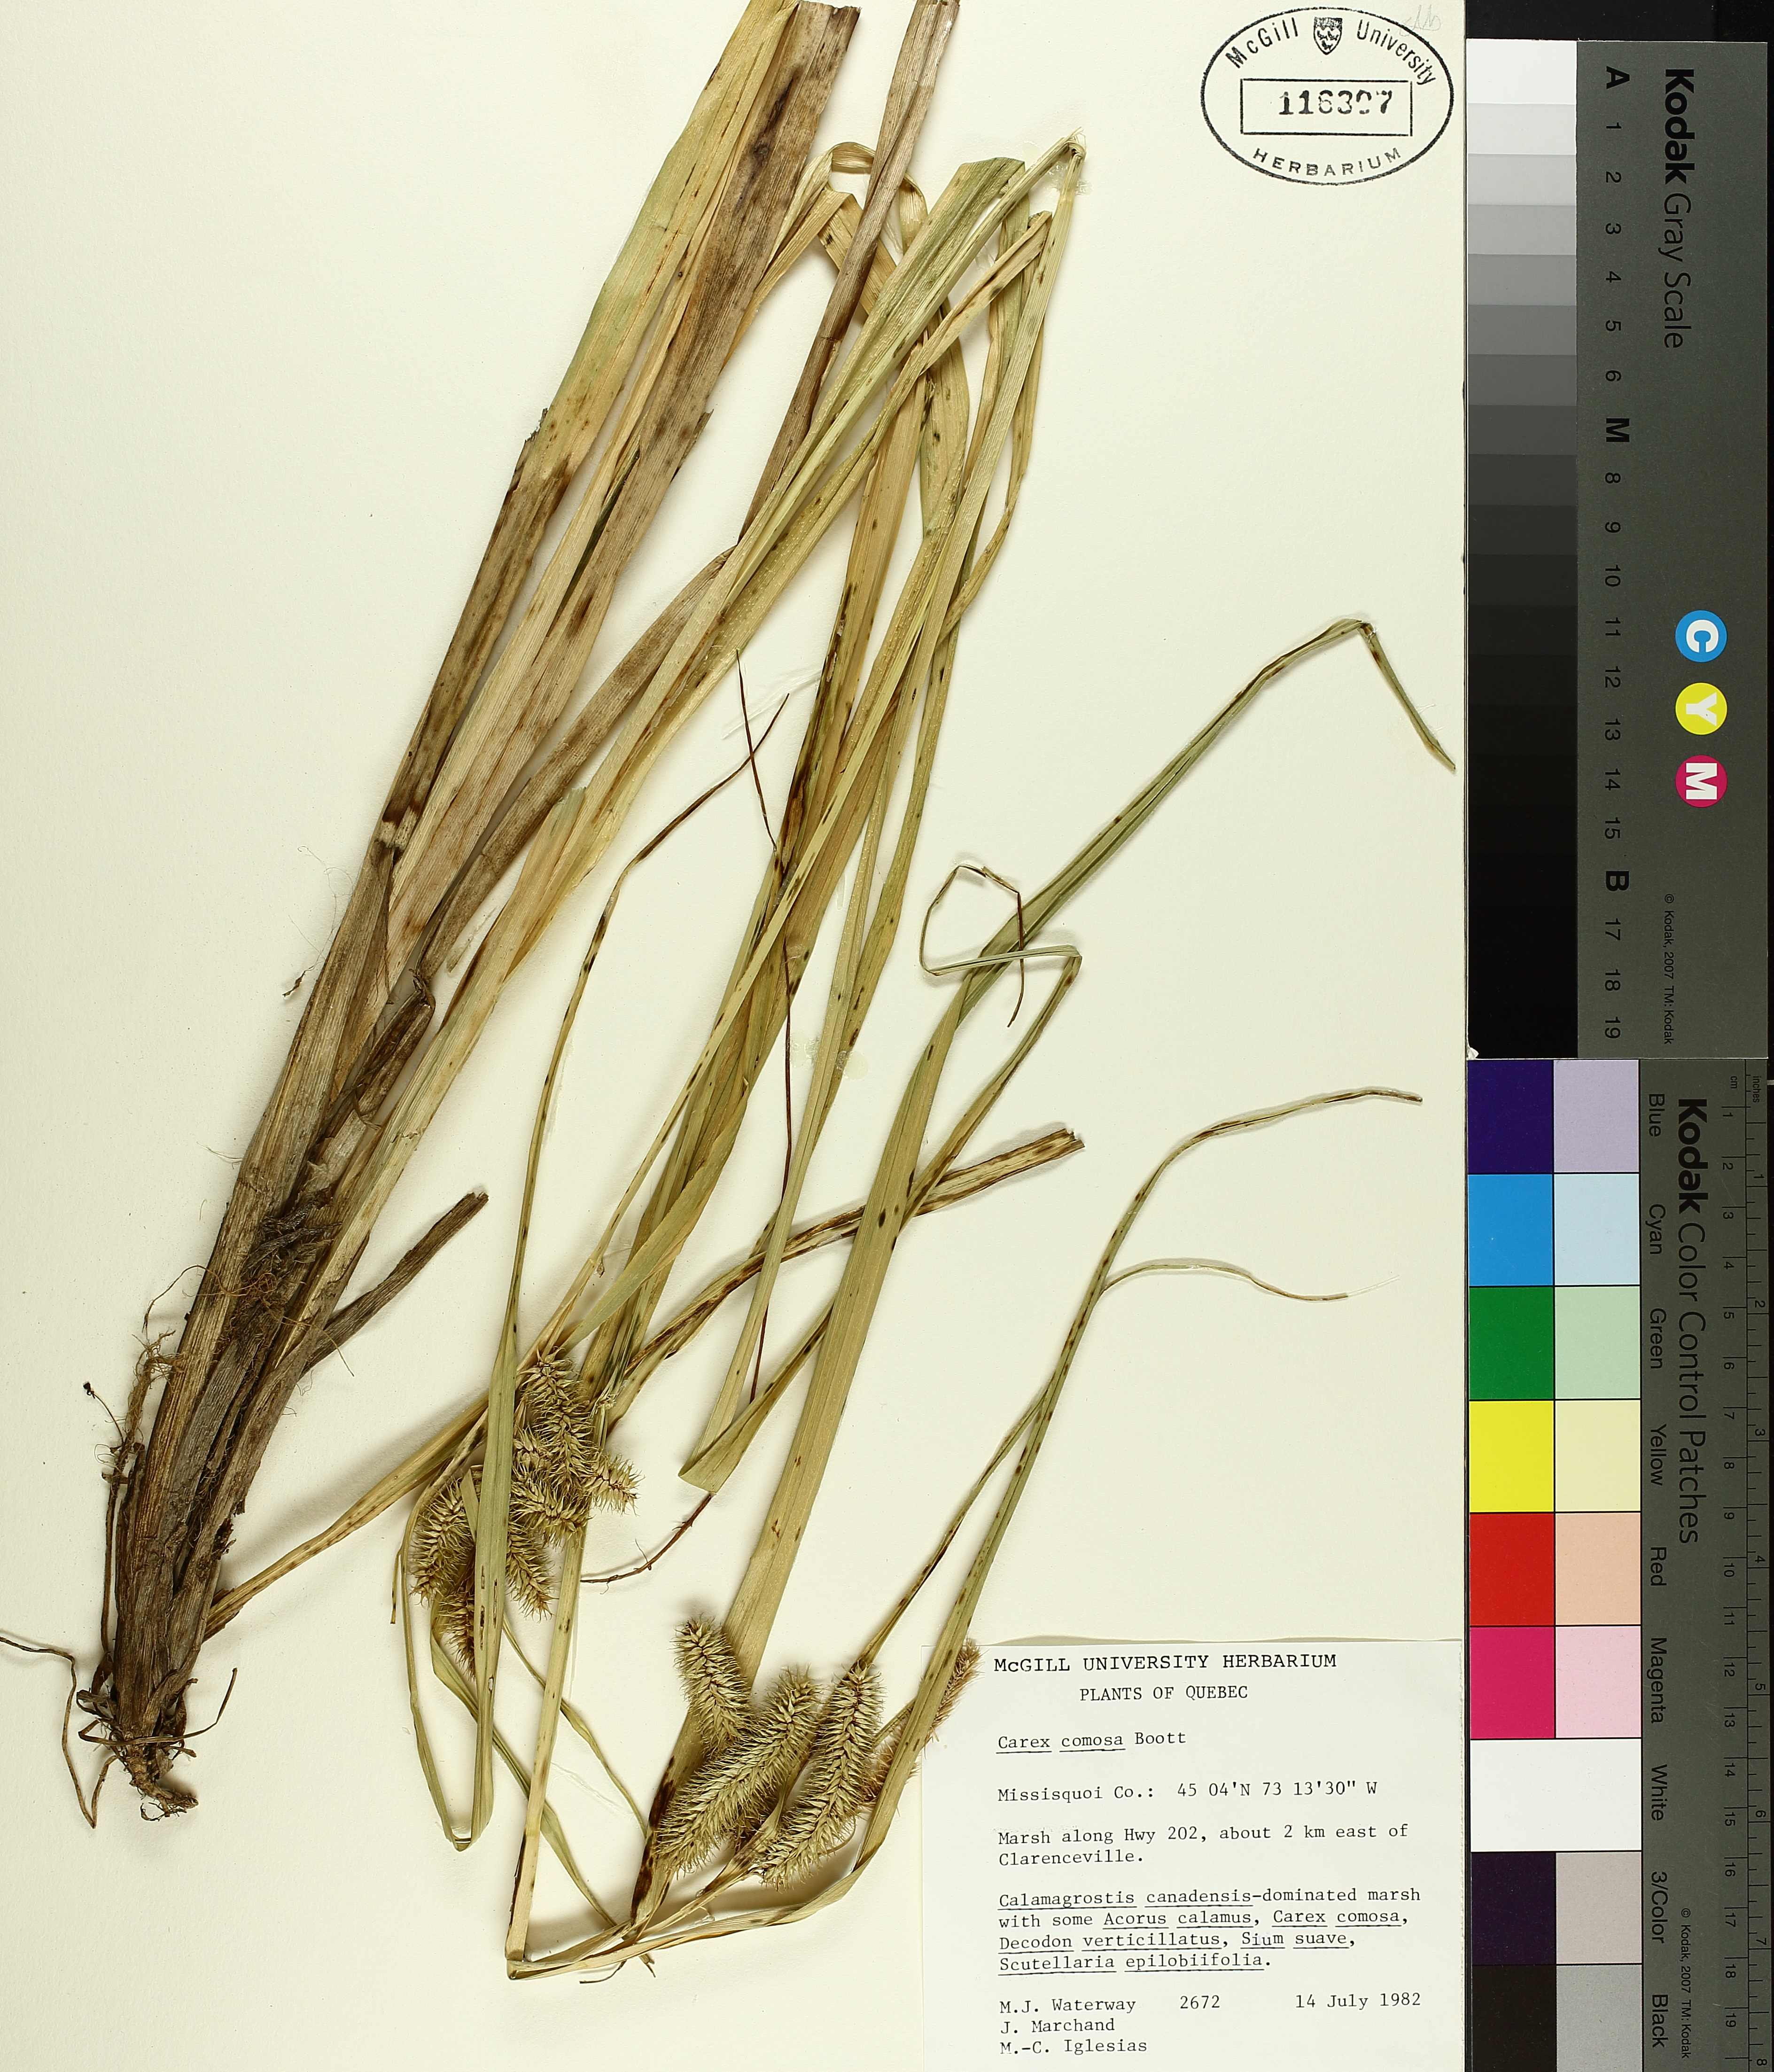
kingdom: Plantae
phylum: Tracheophyta
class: Liliopsida
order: Poales
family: Cyperaceae
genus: Carex
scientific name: Carex comosa
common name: Bristly sedge
